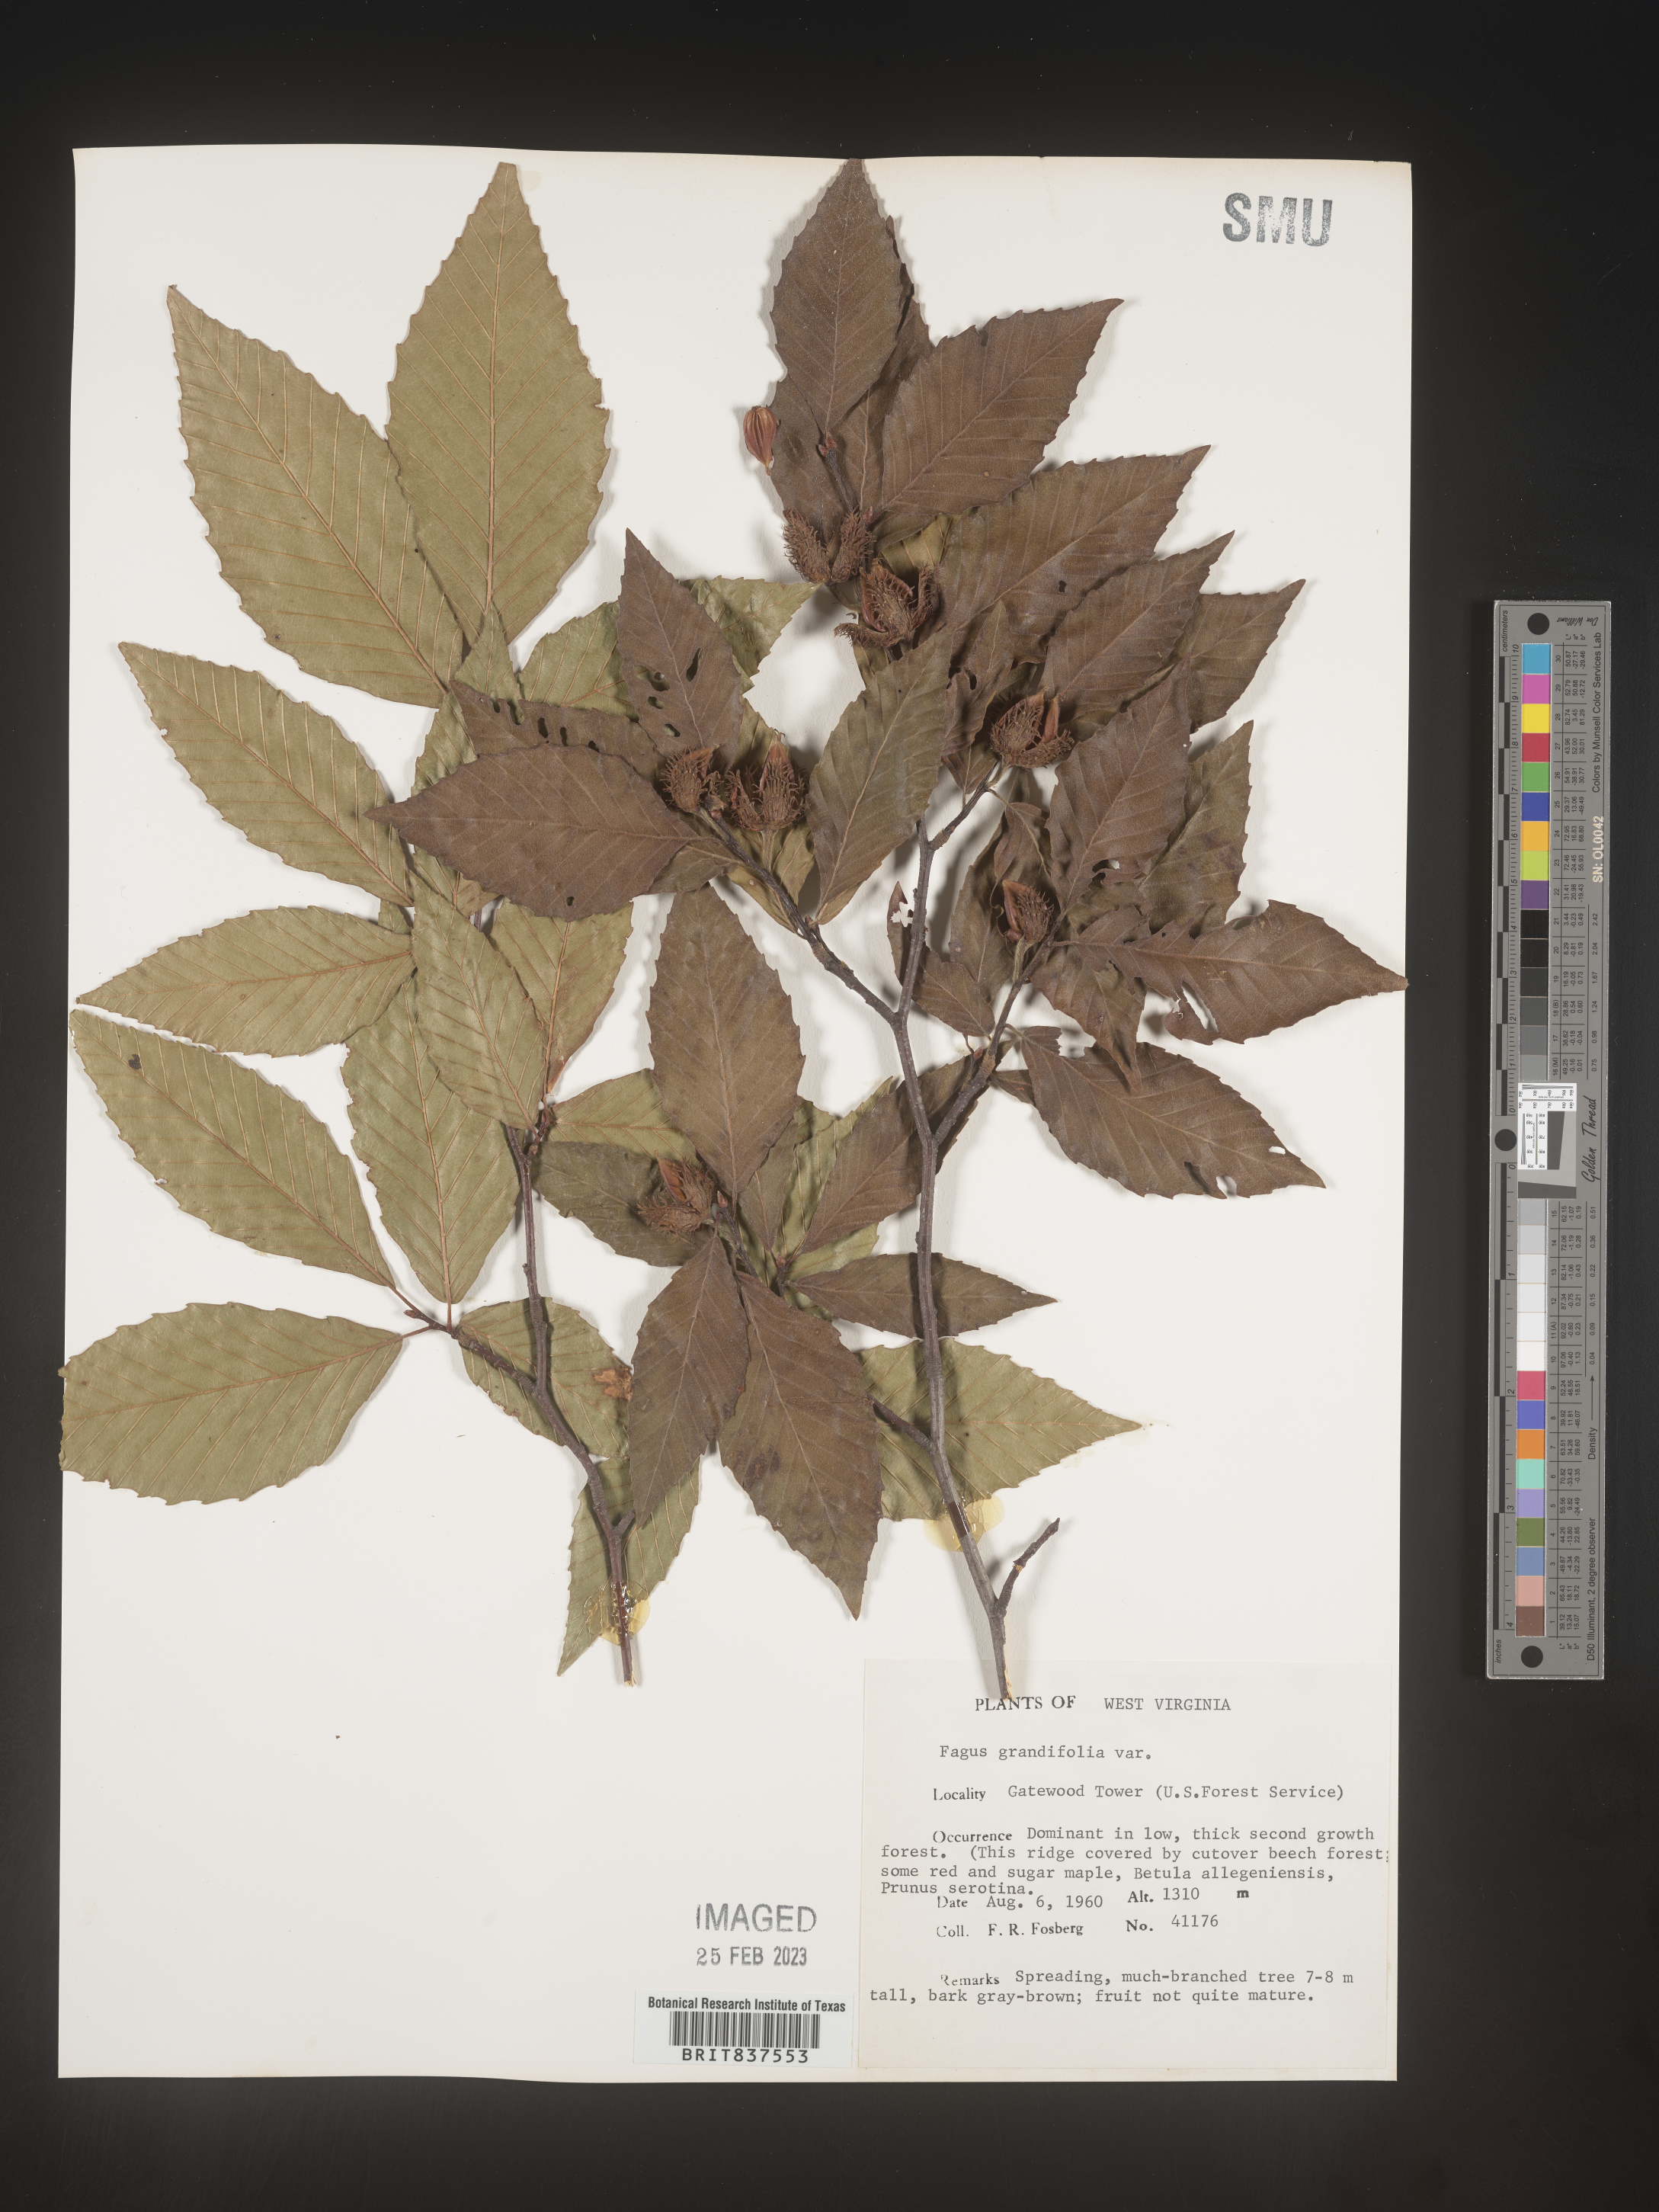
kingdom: Plantae
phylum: Tracheophyta
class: Magnoliopsida
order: Fagales
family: Fagaceae
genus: Fagus
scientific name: Fagus grandifolia
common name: American beech
